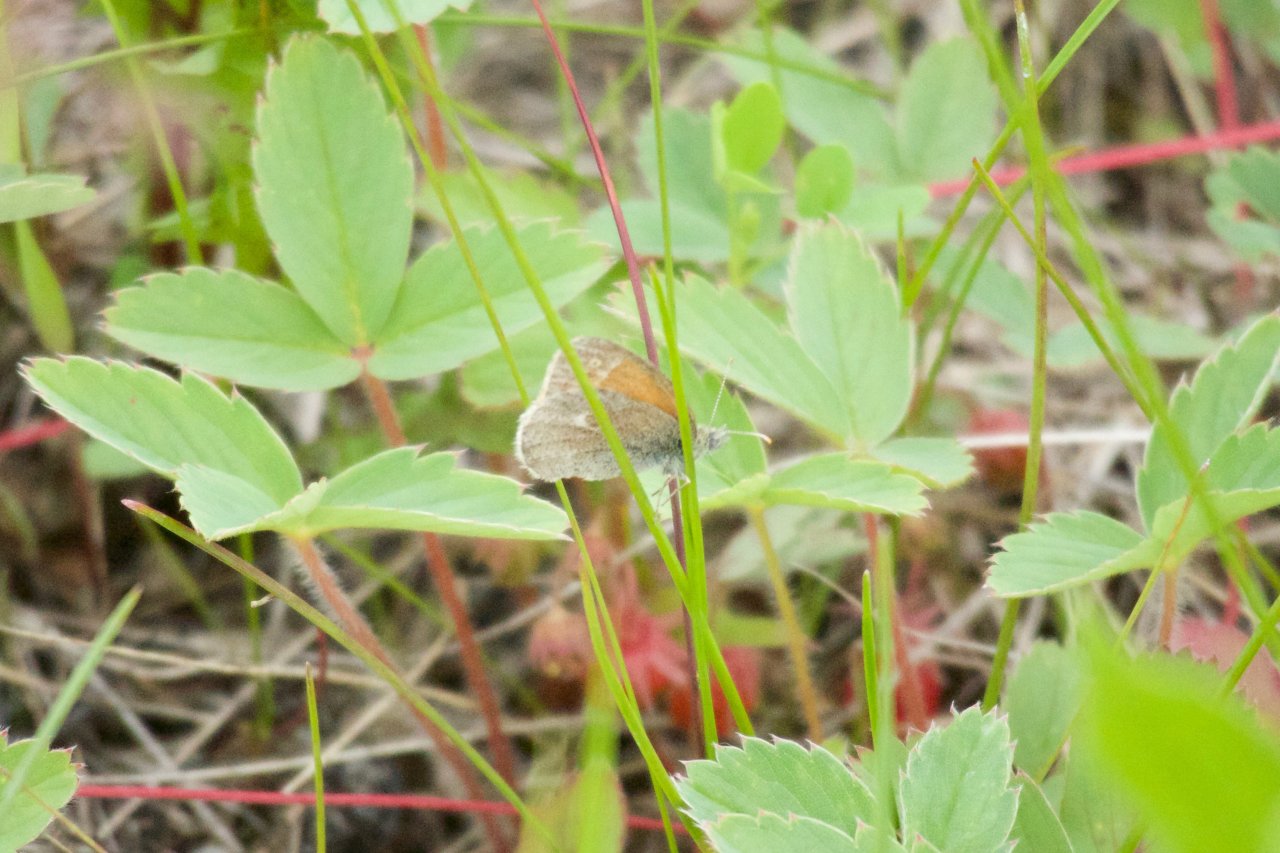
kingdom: Animalia
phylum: Arthropoda
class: Insecta
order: Lepidoptera
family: Nymphalidae
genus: Coenonympha
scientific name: Coenonympha tullia
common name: Large Heath
